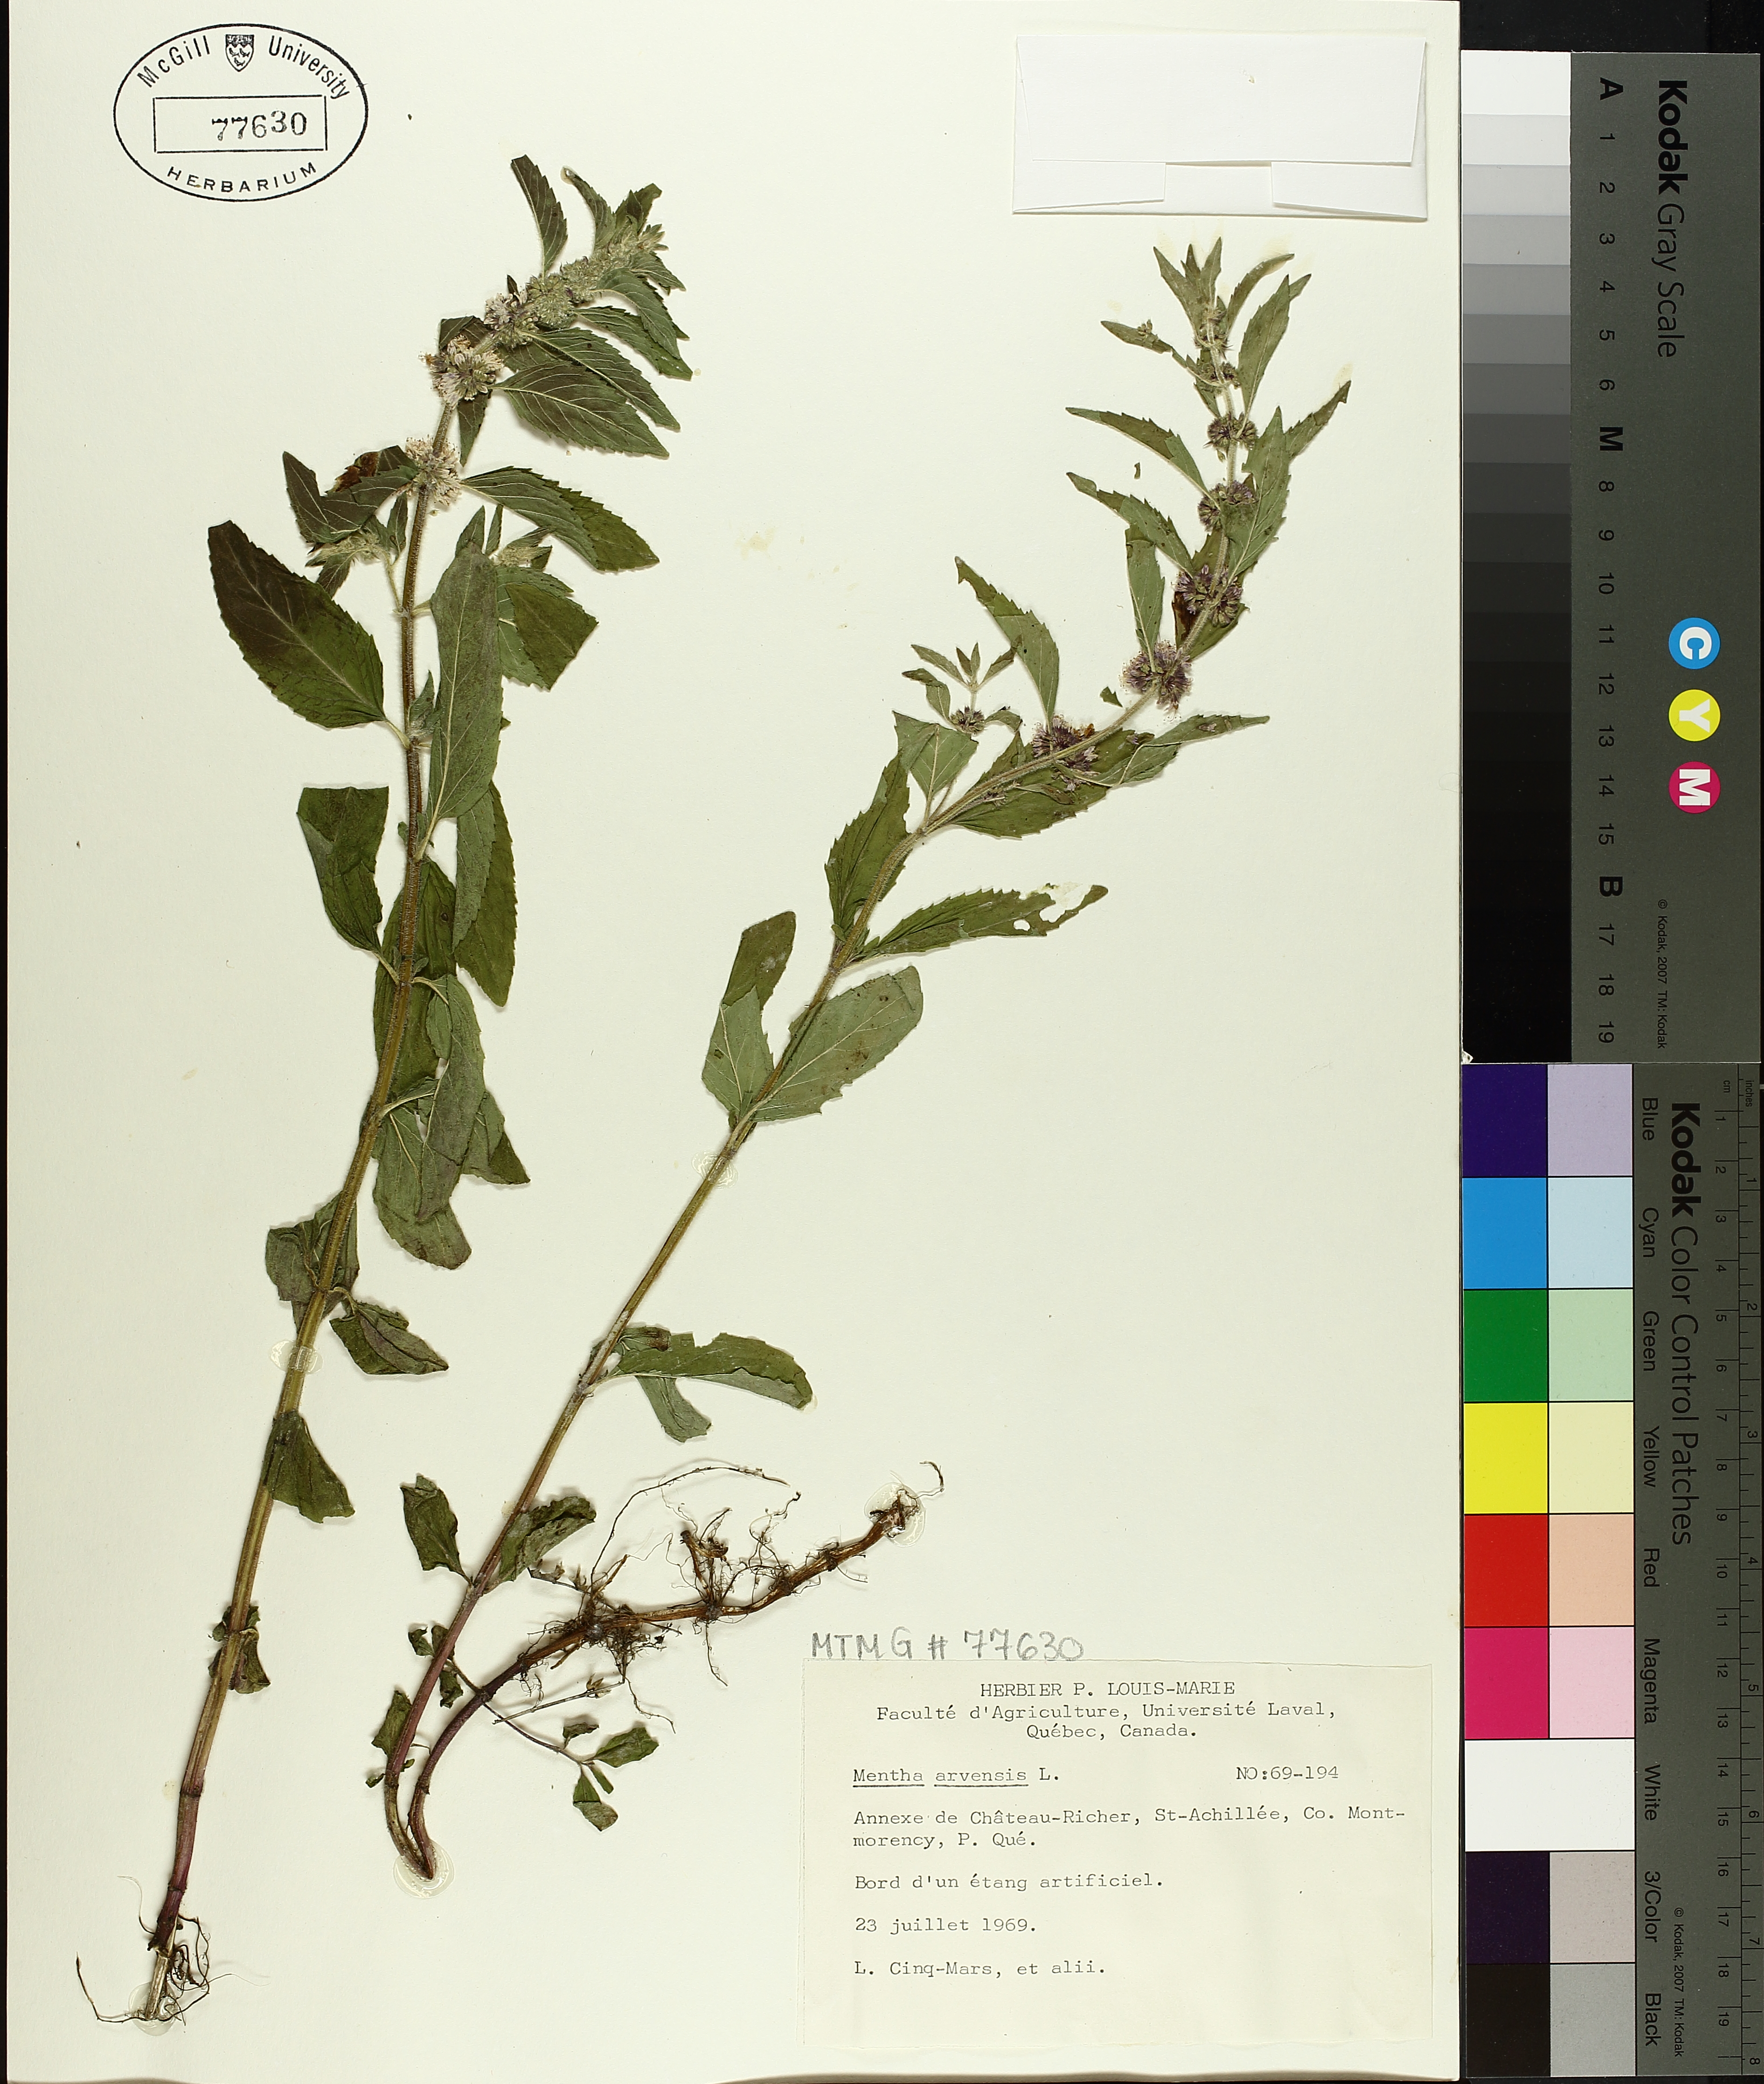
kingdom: Plantae
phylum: Tracheophyta
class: Magnoliopsida
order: Lamiales
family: Lamiaceae
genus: Mentha
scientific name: Mentha arvensis
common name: Corn mint
